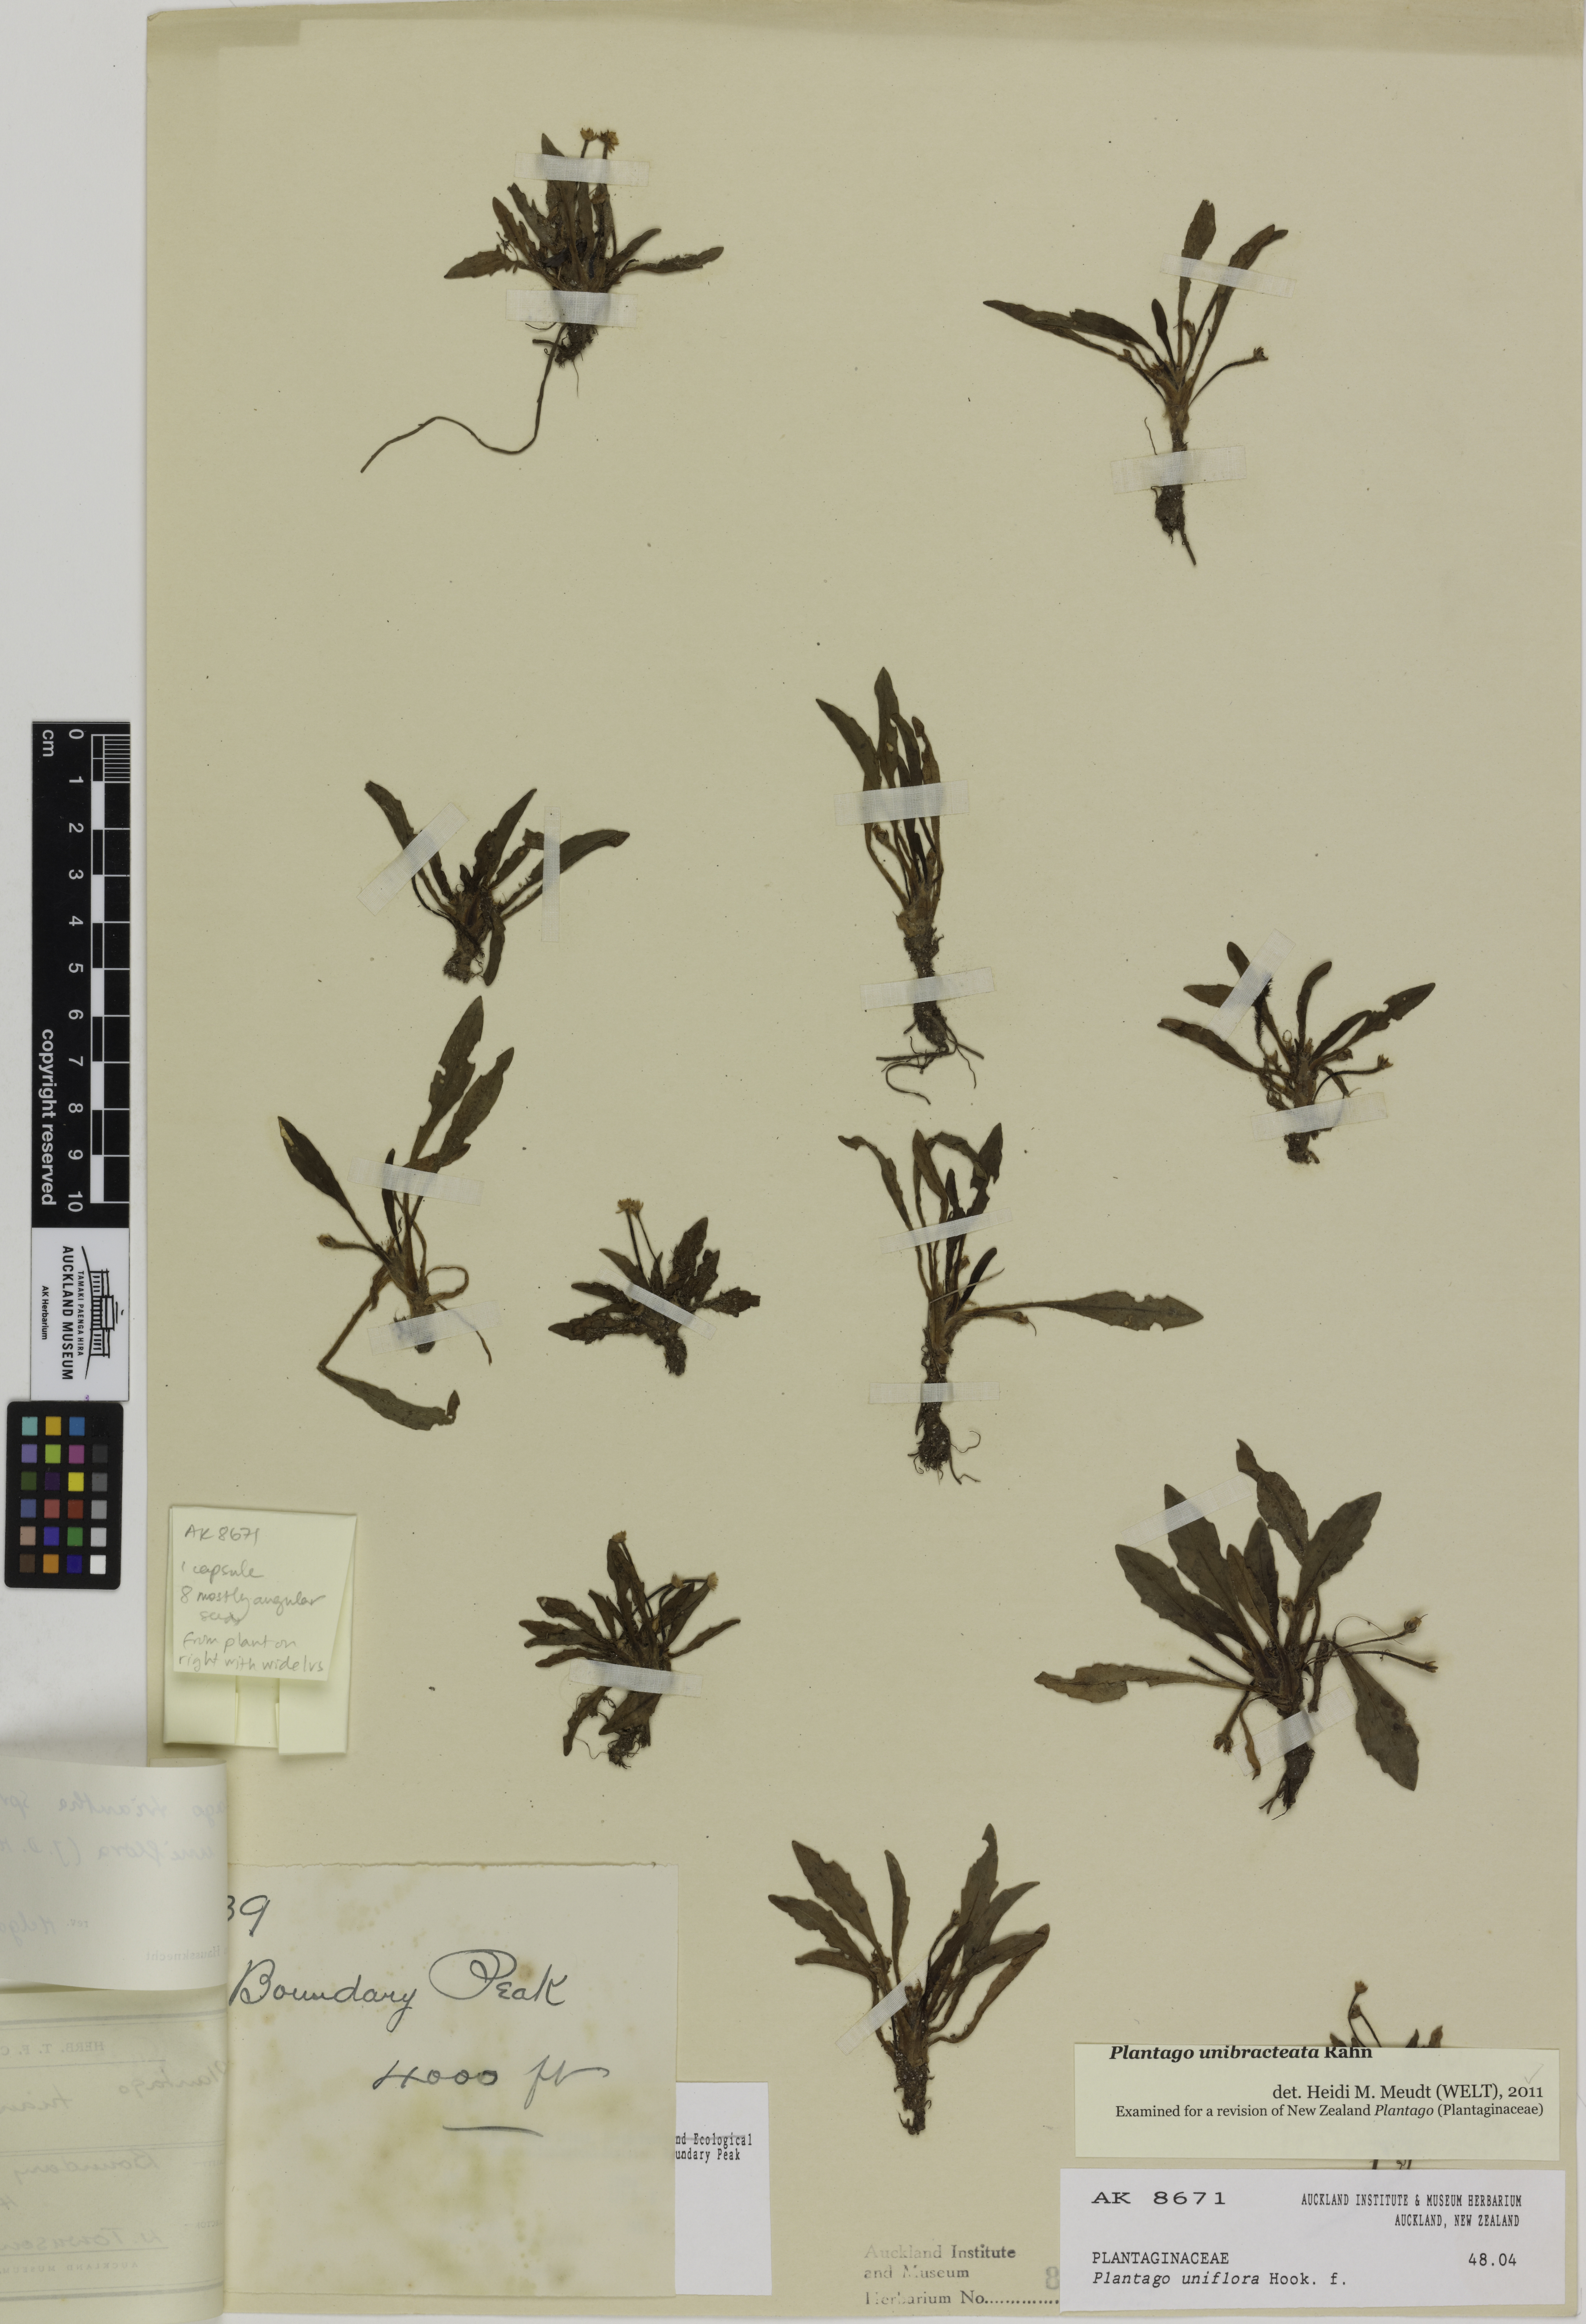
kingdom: Plantae
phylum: Tracheophyta
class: Magnoliopsida
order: Lamiales
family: Plantaginaceae
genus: Plantago
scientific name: Plantago unibracteata
